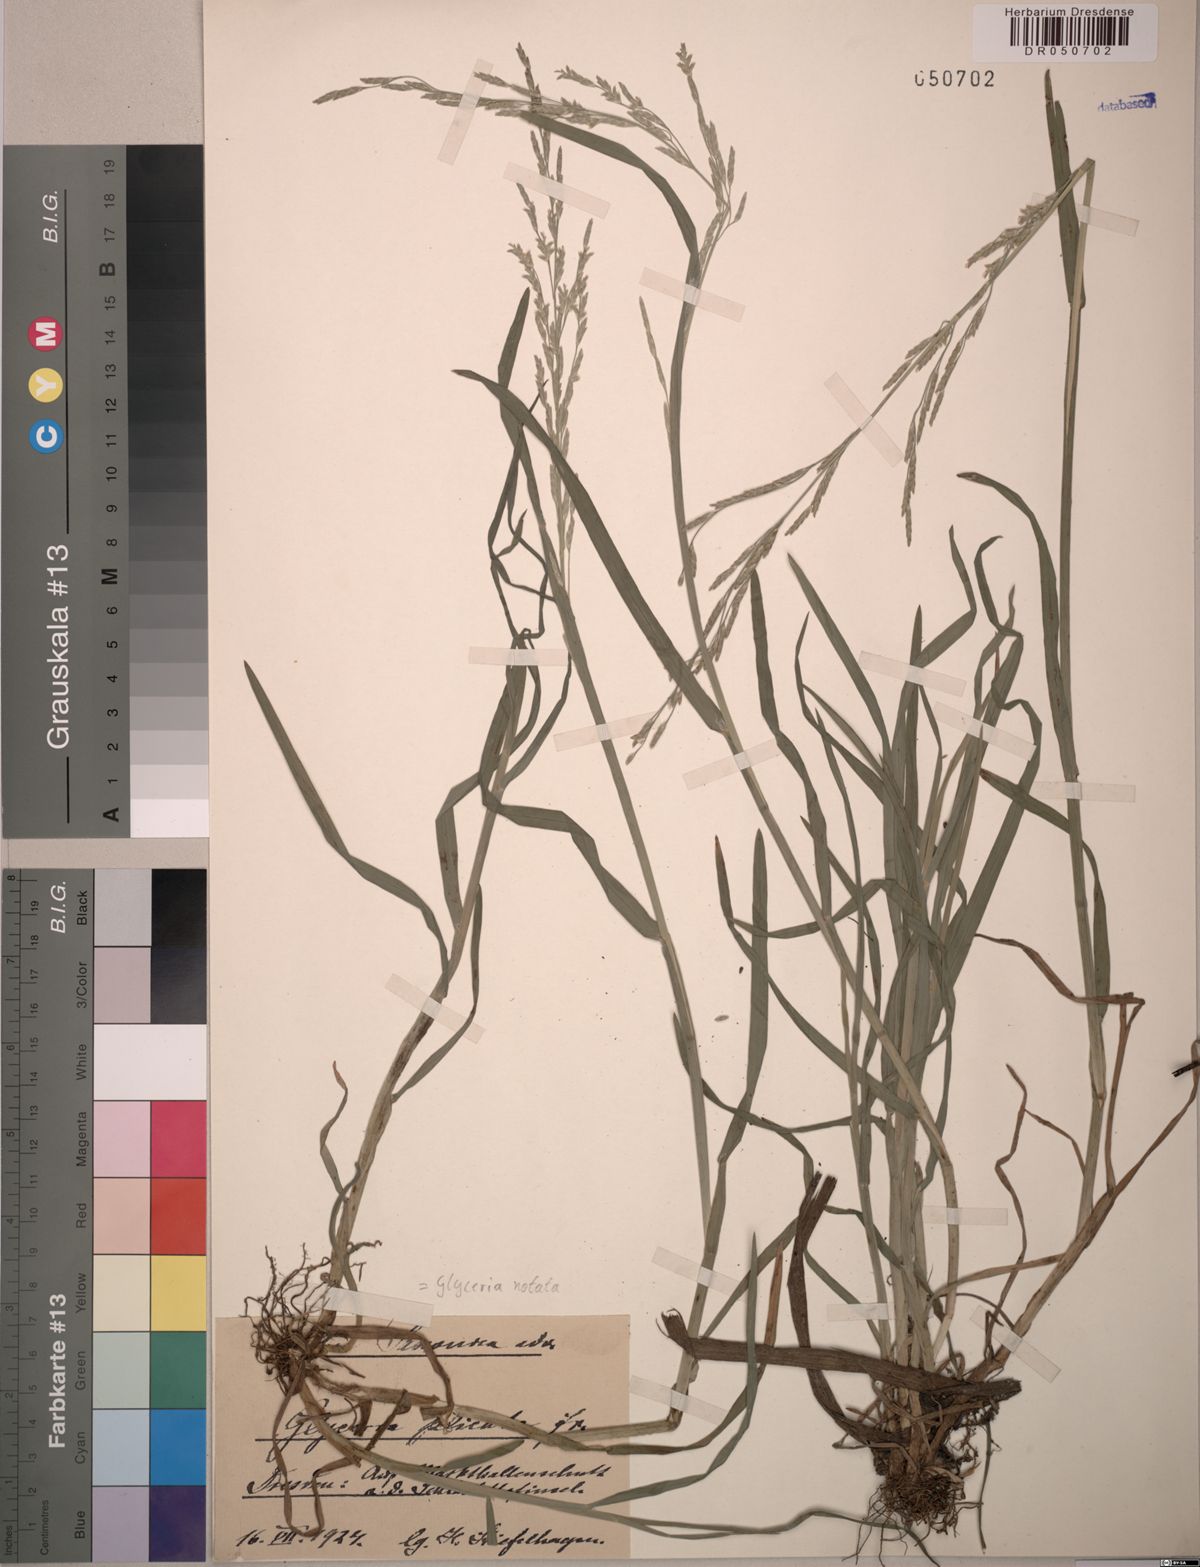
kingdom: Plantae
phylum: Tracheophyta
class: Liliopsida
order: Poales
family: Poaceae
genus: Glyceria
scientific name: Glyceria notata
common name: Plicate sweet-grass
